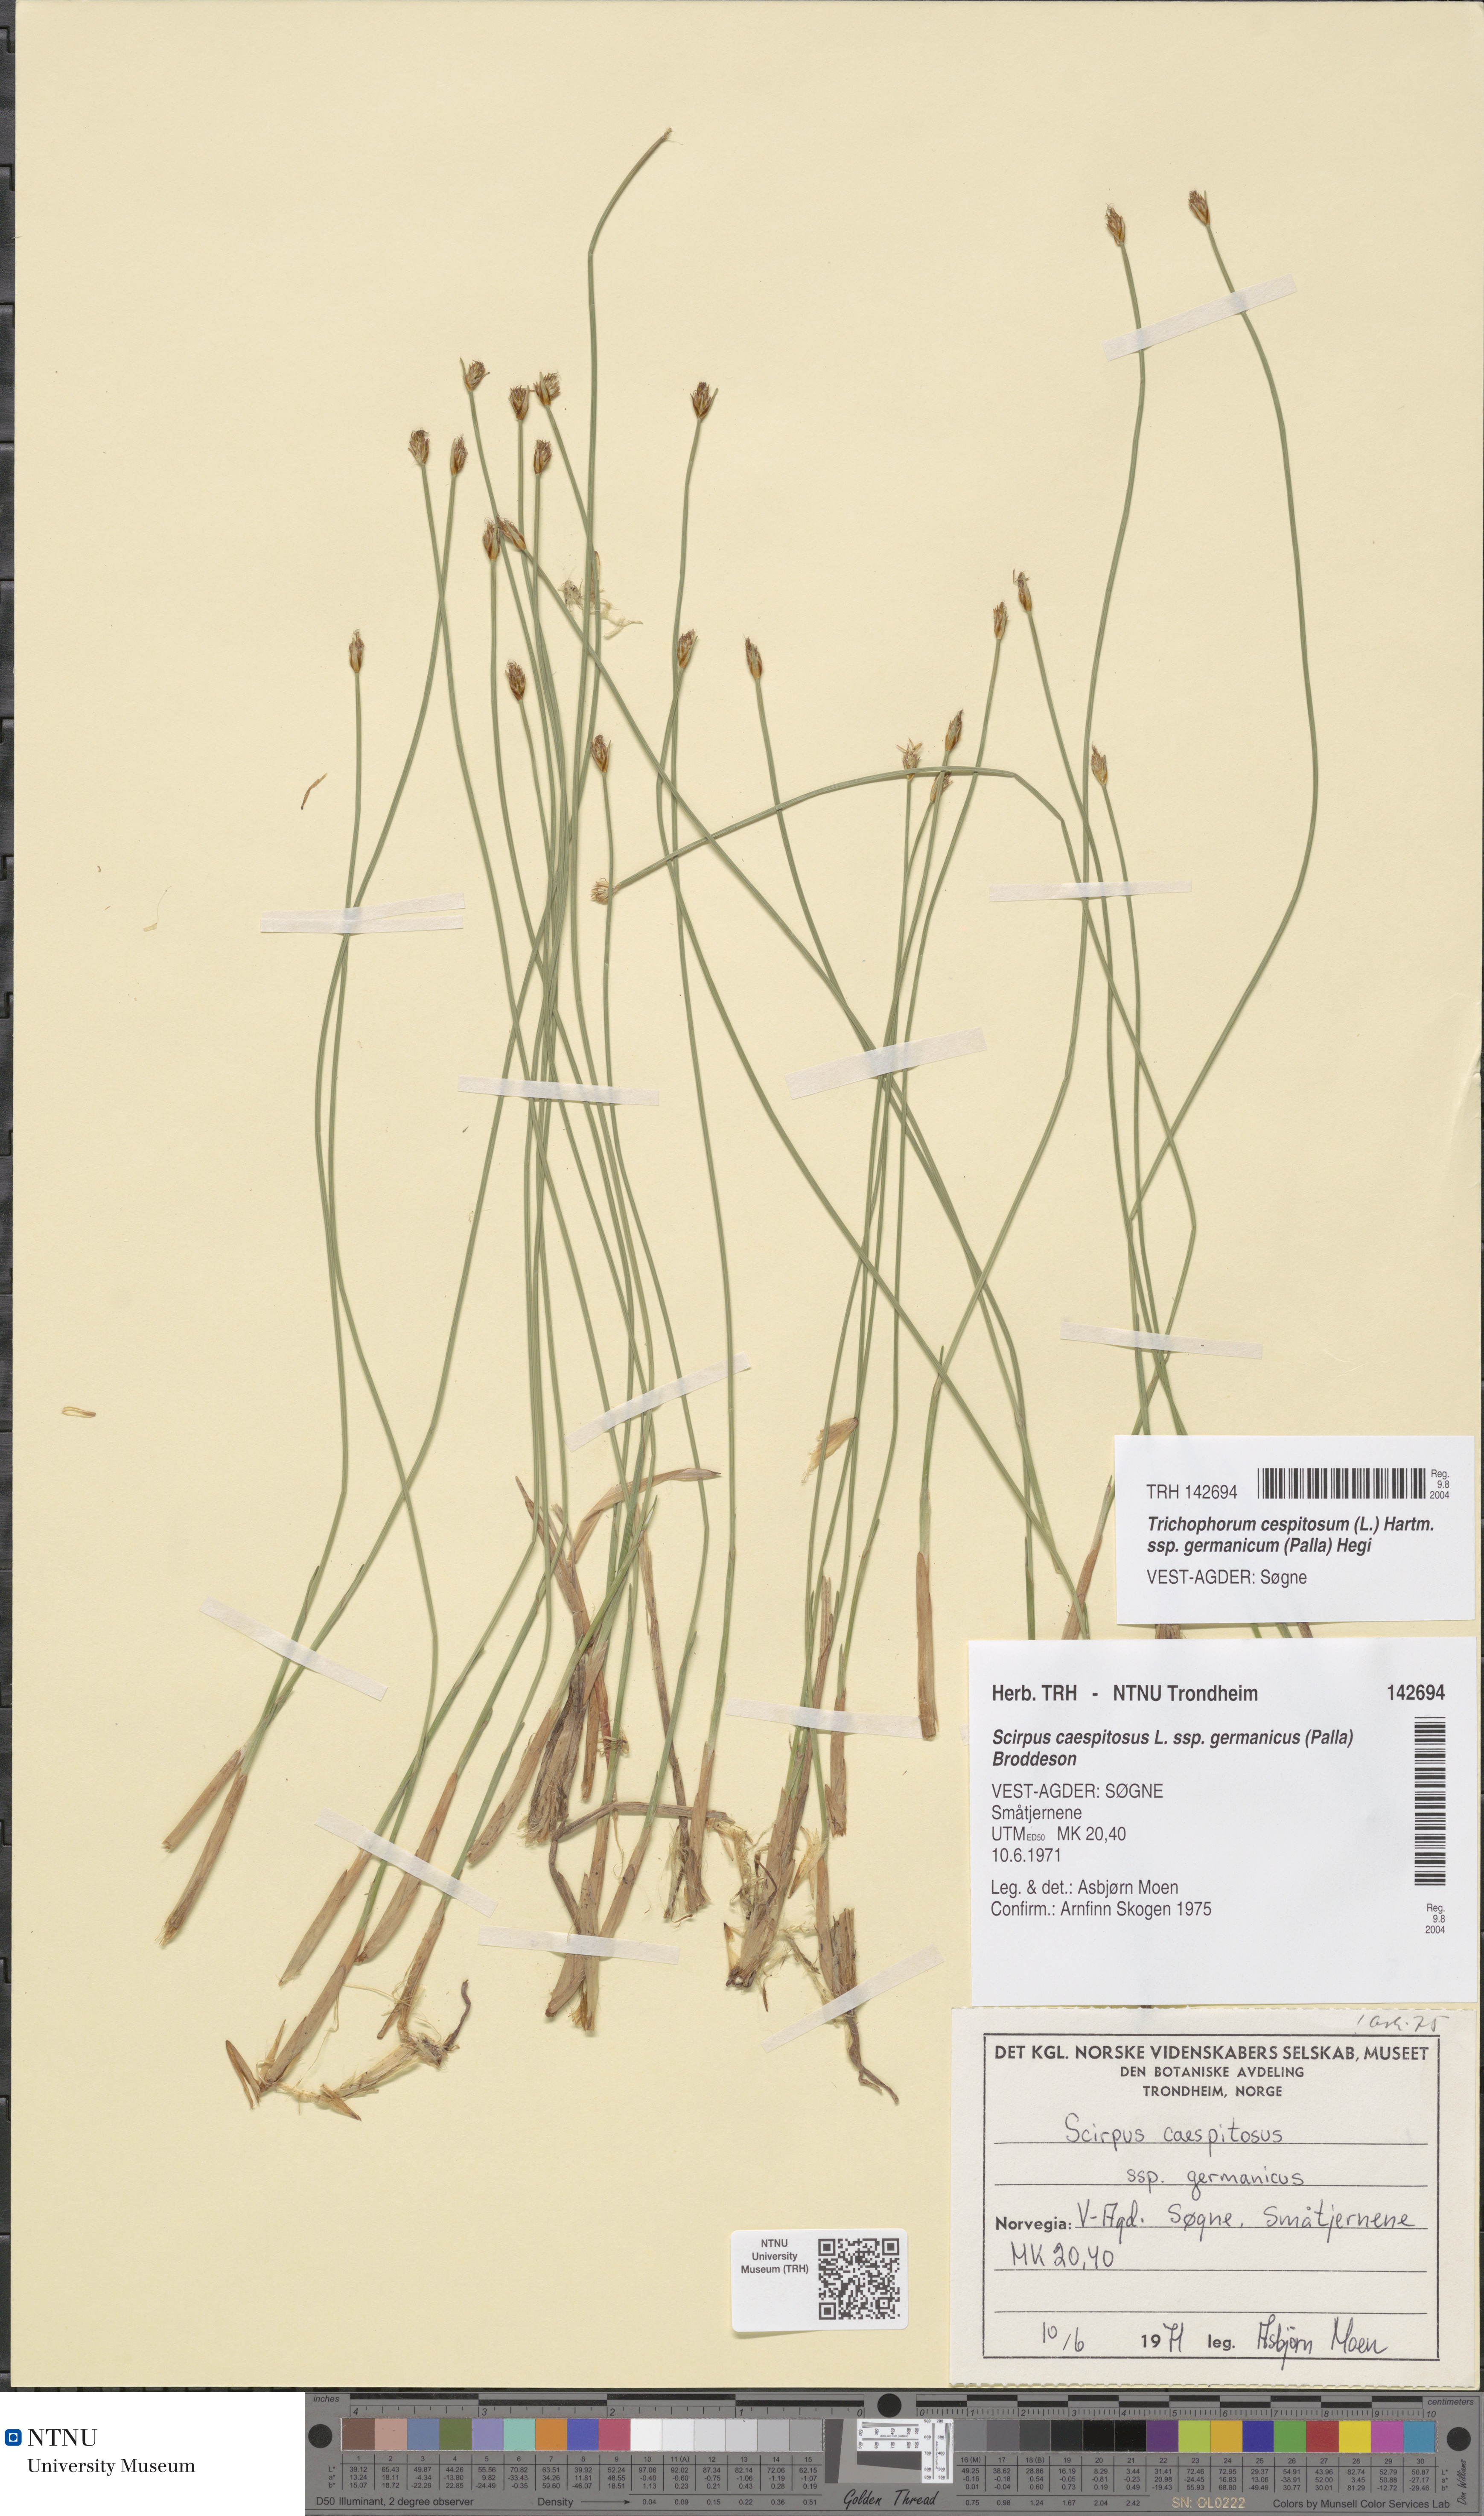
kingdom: Plantae
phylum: Tracheophyta
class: Liliopsida
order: Poales
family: Cyperaceae
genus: Trichophorum
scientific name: Trichophorum cespitosum
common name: Cespitose bulrush
